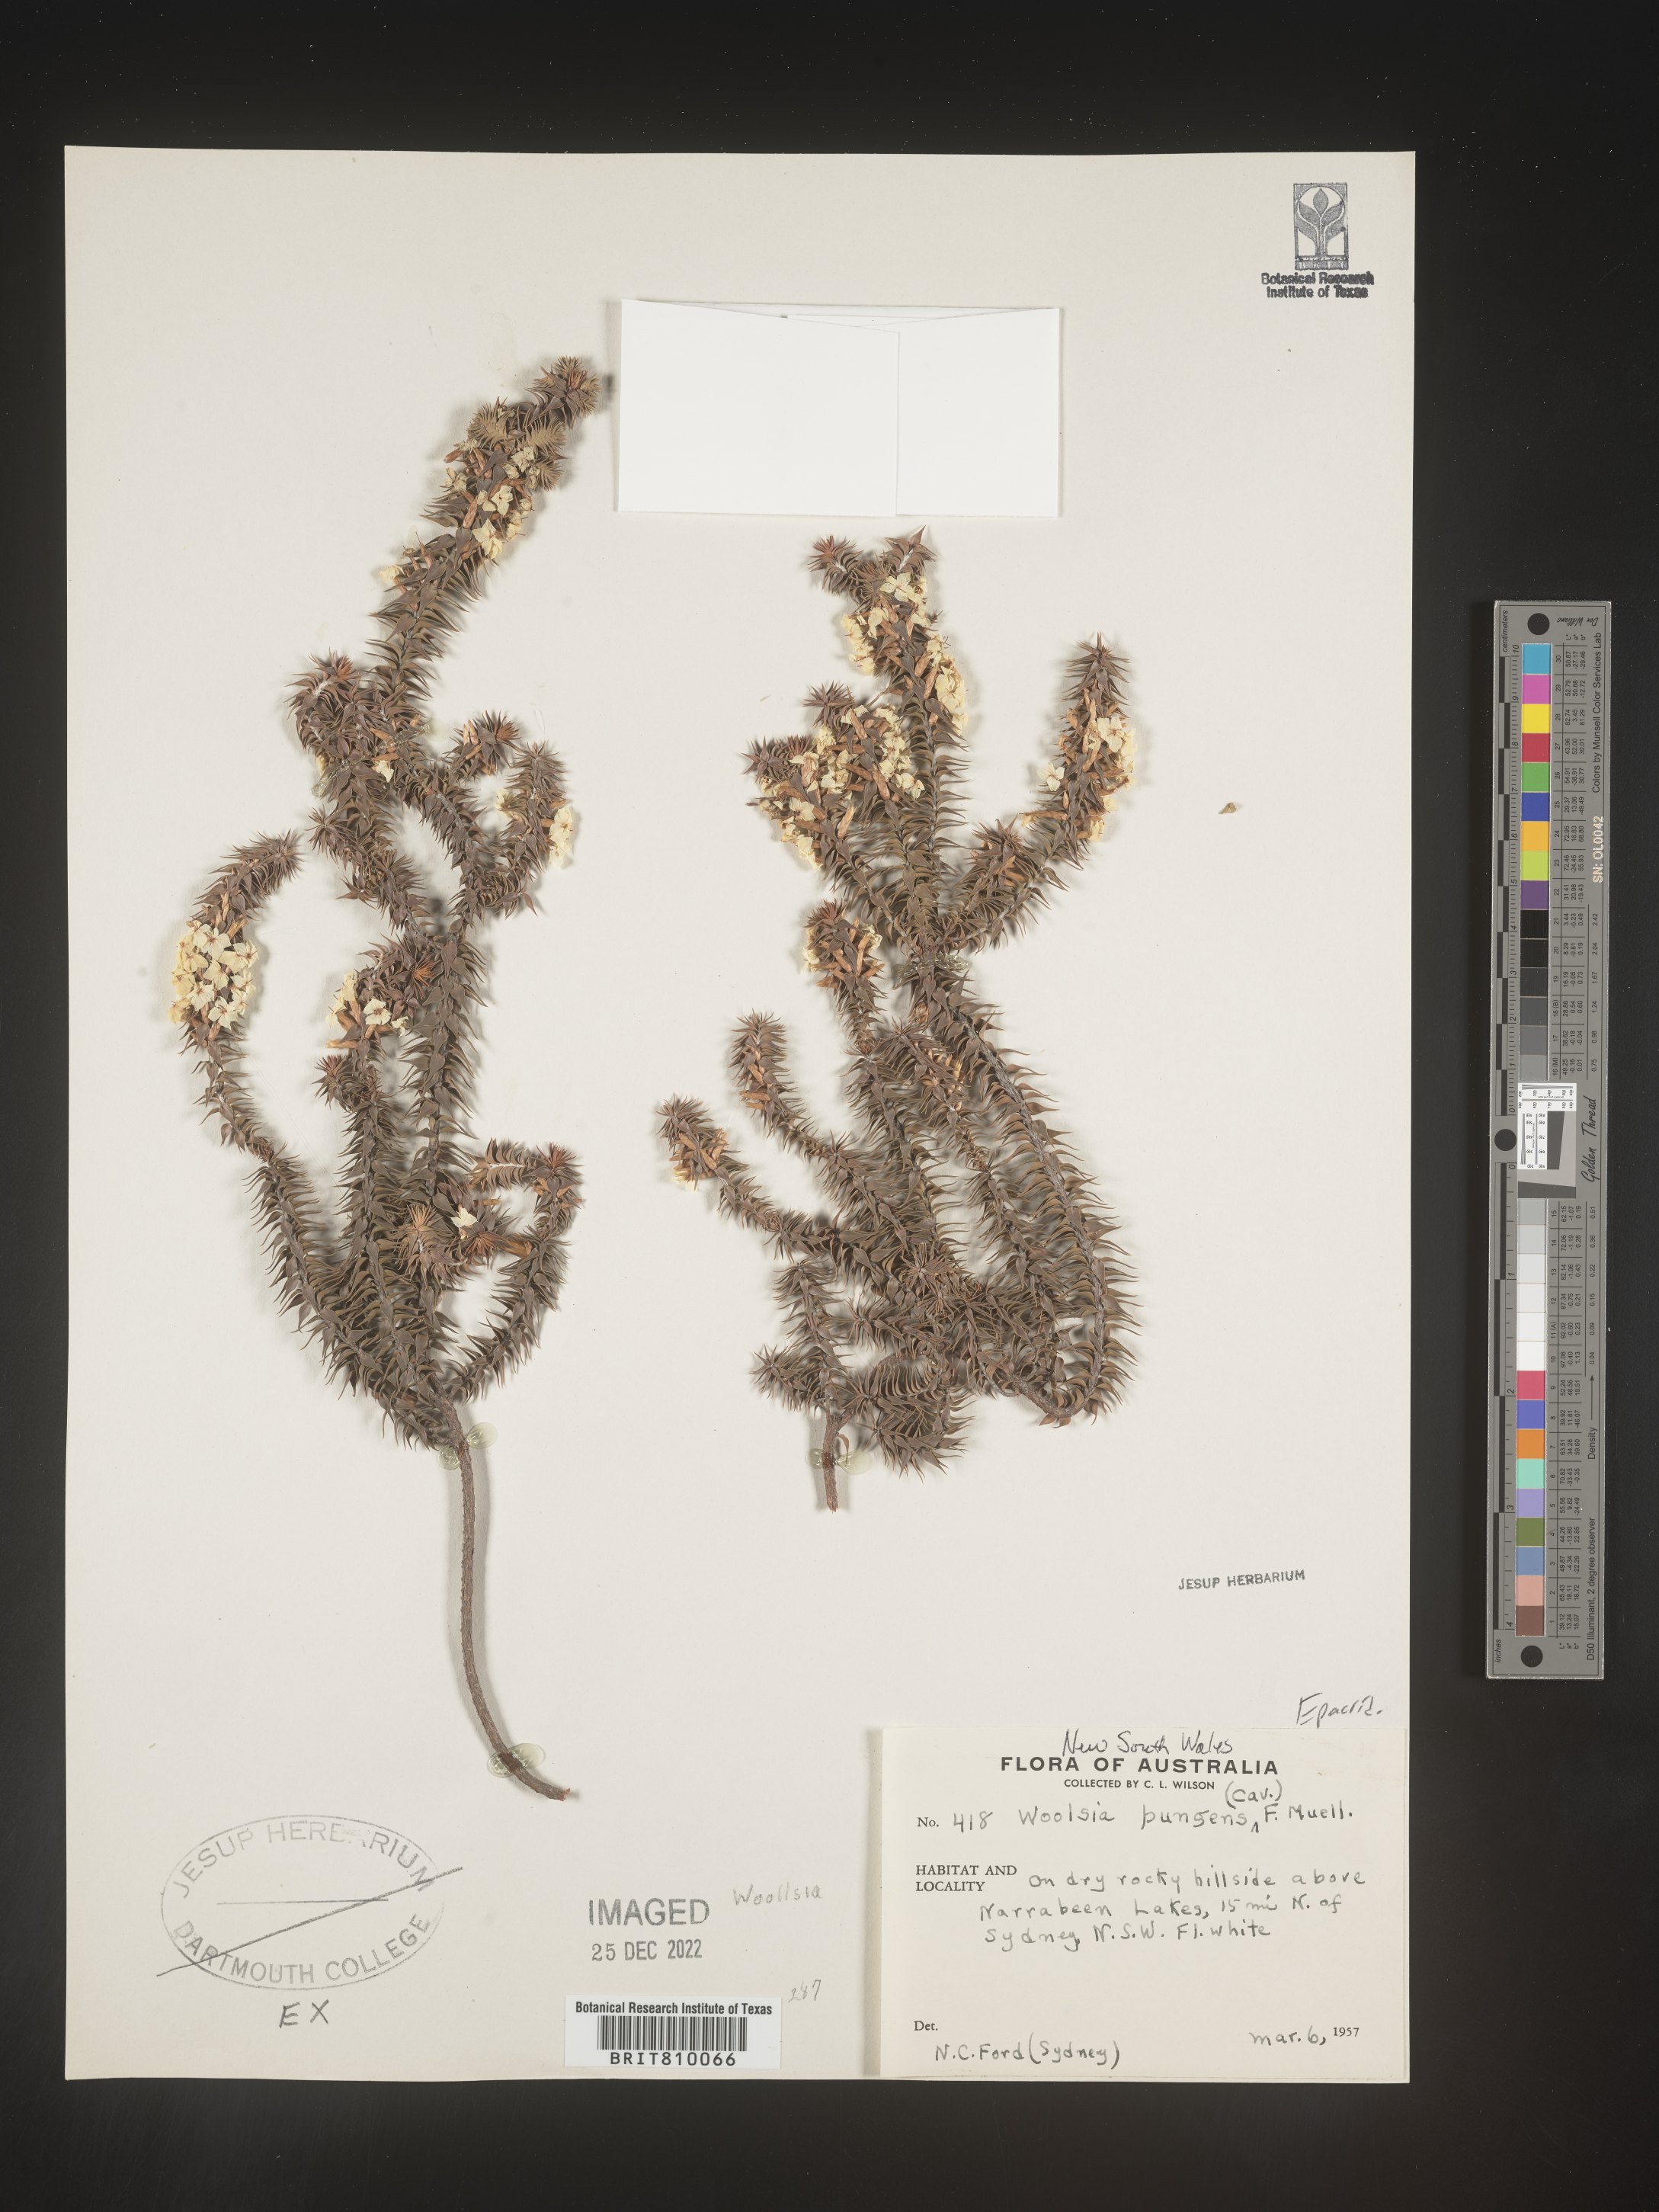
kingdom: Plantae
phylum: Tracheophyta
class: Magnoliopsida
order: Ericales
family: Ericaceae
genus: Woollsia
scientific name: Woollsia
